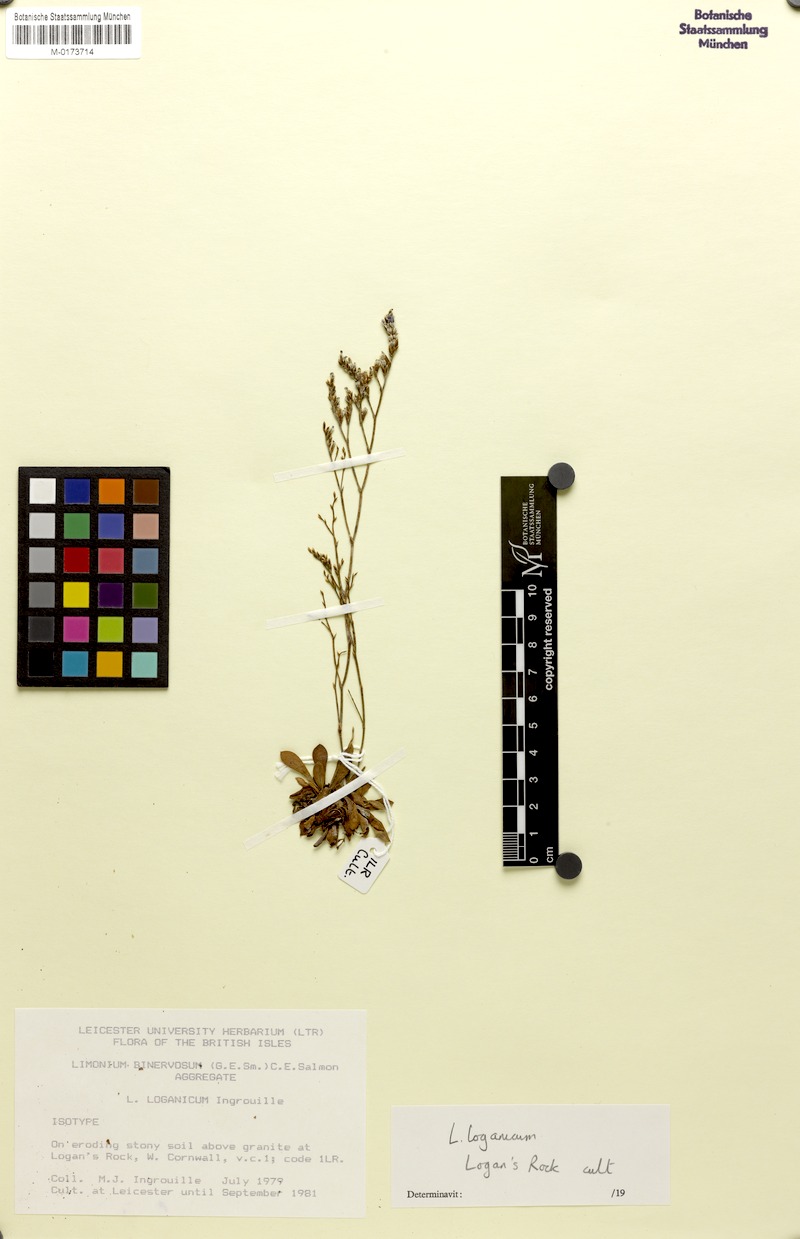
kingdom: Plantae
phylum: Tracheophyta
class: Magnoliopsida
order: Caryophyllales
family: Plumbaginaceae
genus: Limonium
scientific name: Limonium loganicum
